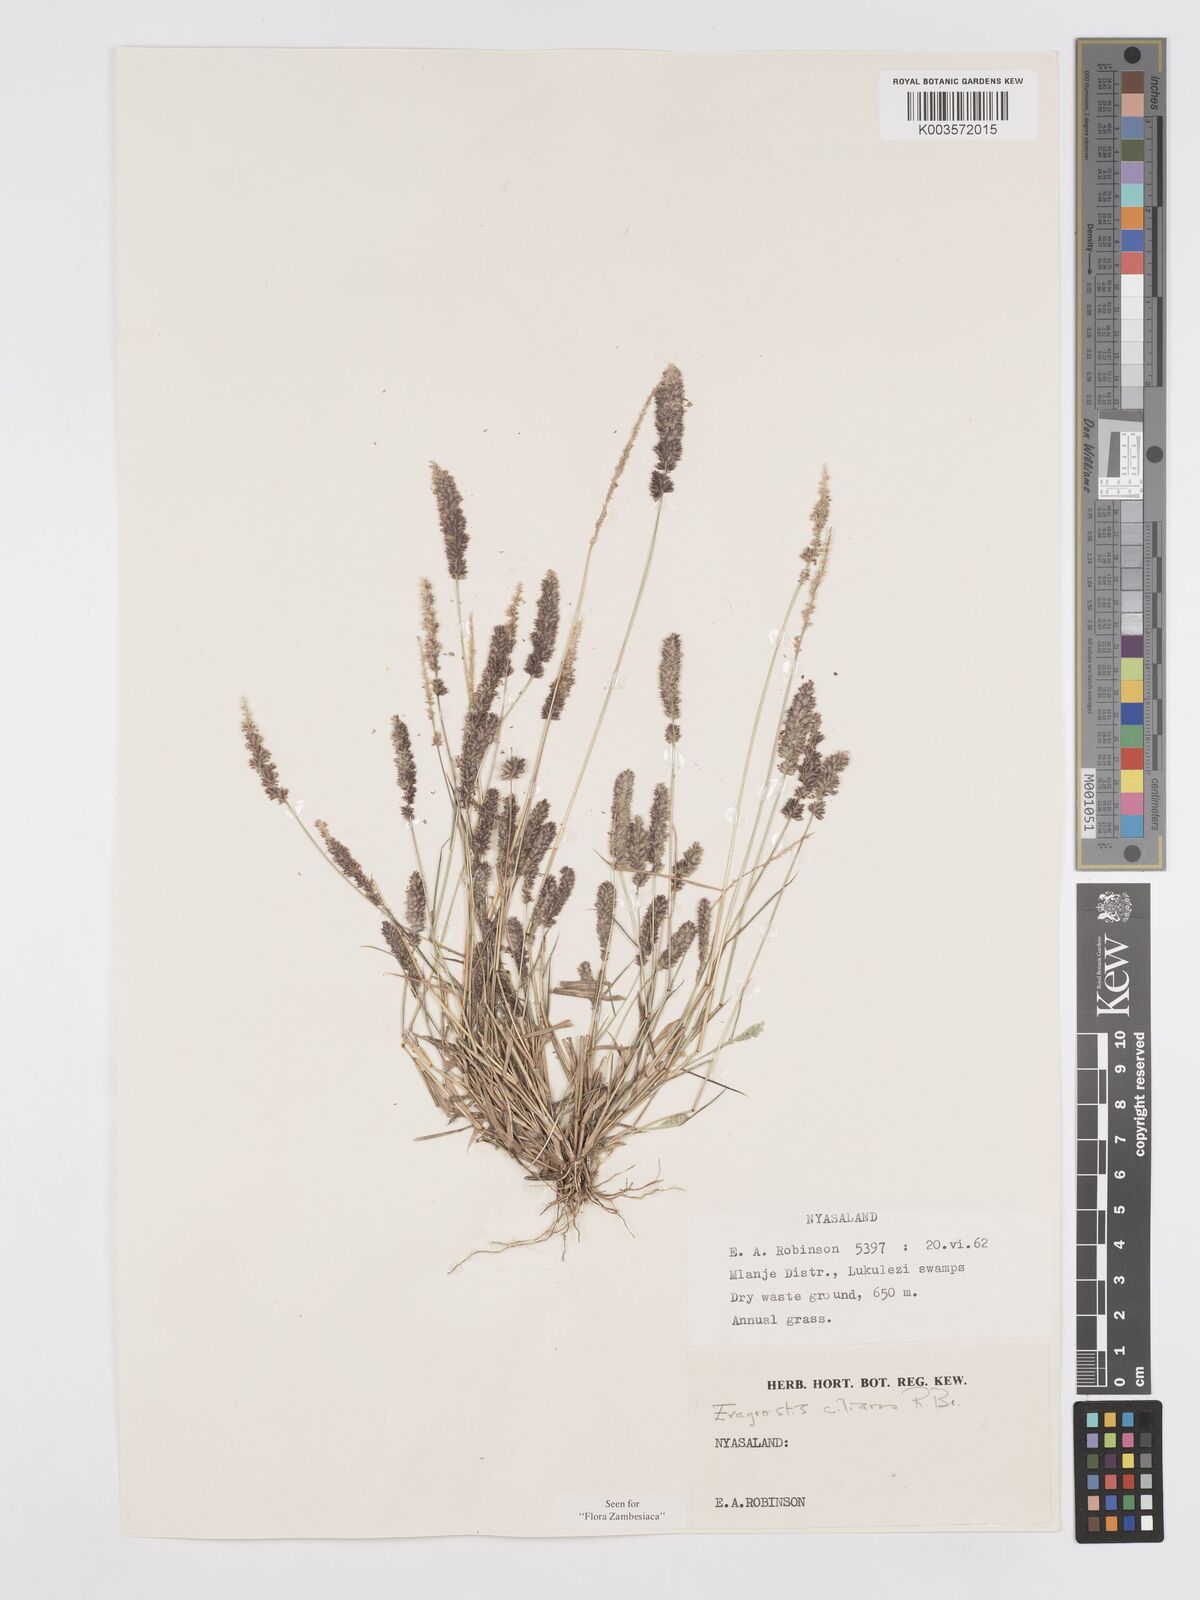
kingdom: Plantae
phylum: Tracheophyta
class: Liliopsida
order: Poales
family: Poaceae
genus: Eragrostis
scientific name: Eragrostis ciliaris
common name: Gophertail lovegrass
